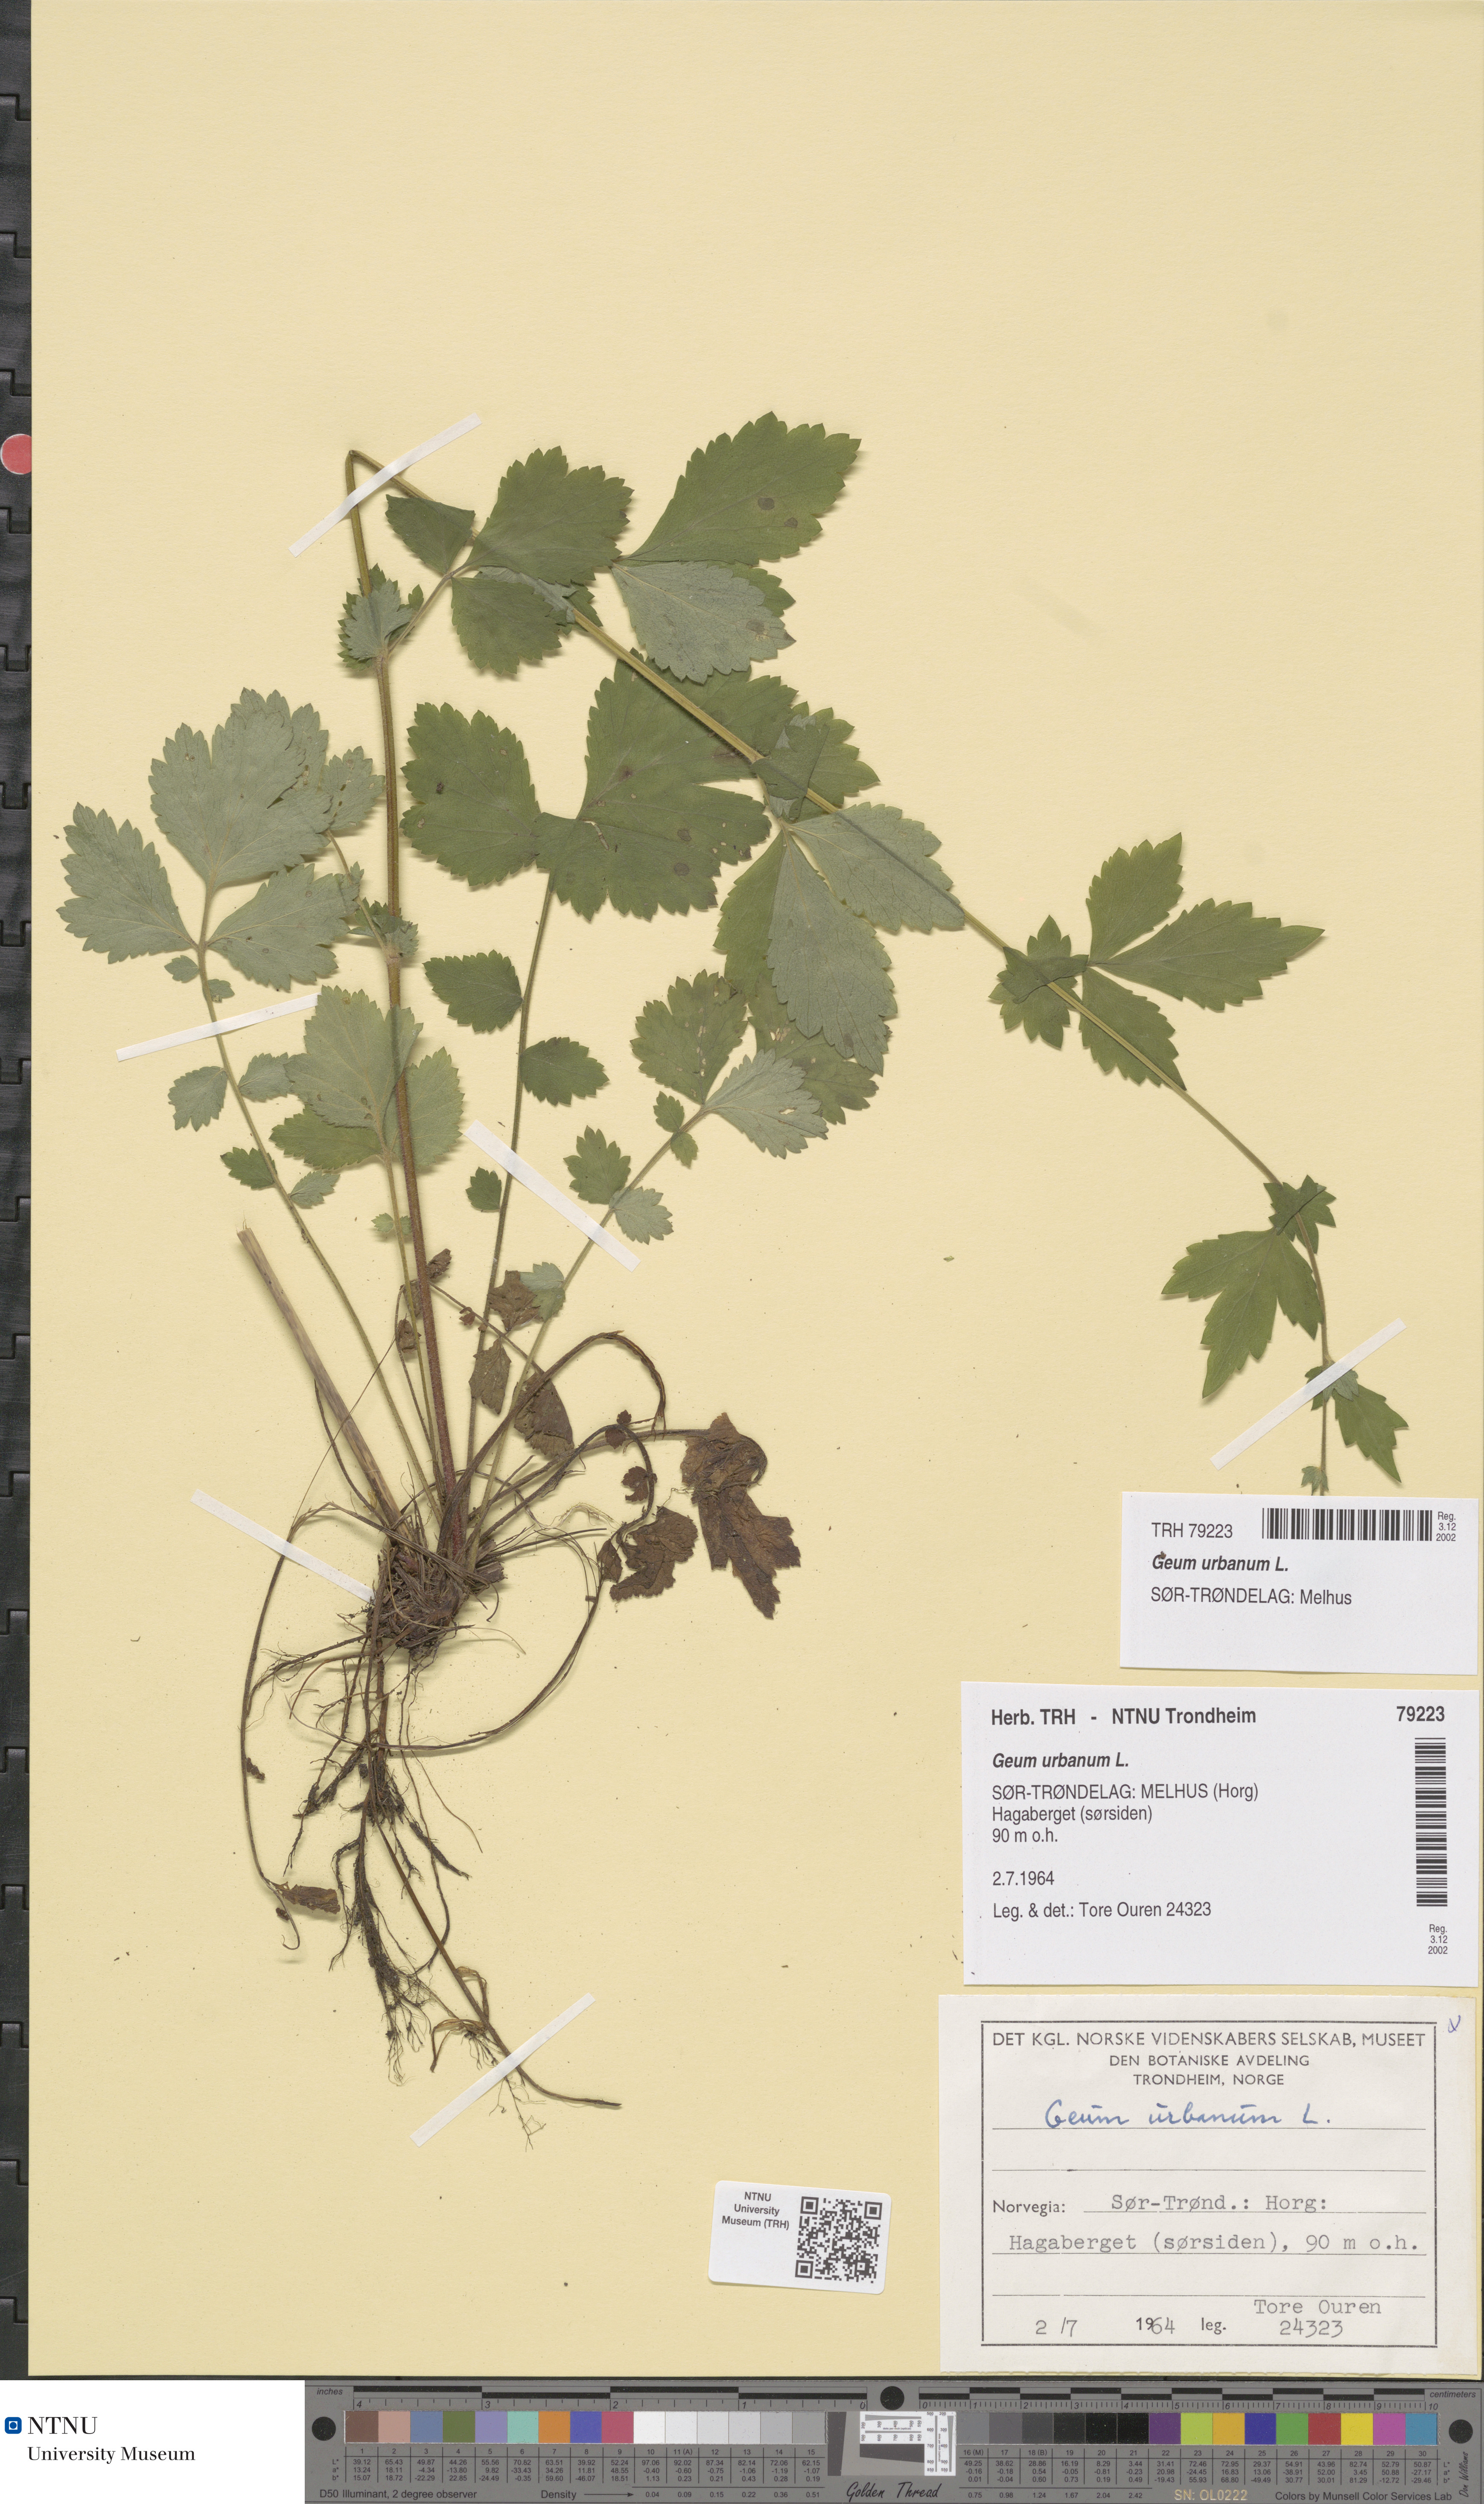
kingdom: Plantae
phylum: Tracheophyta
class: Magnoliopsida
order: Rosales
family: Rosaceae
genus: Geum
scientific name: Geum urbanum
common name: Wood avens
